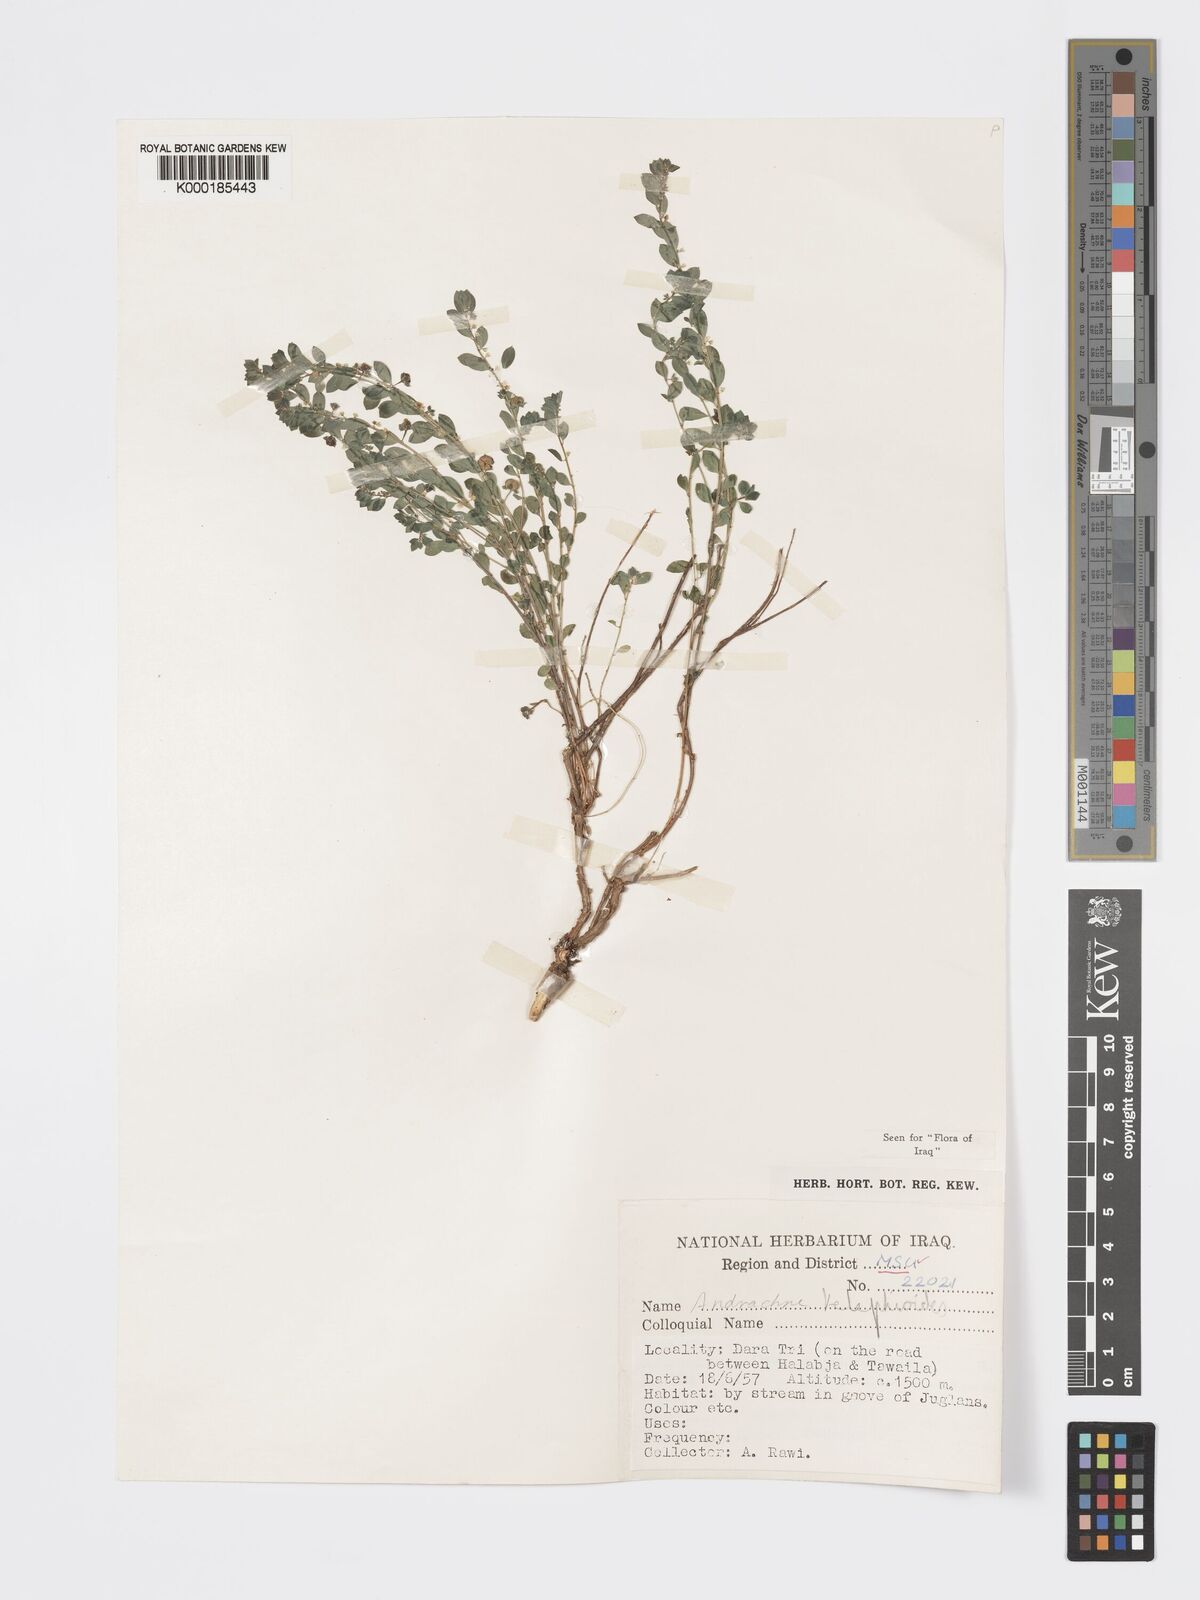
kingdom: Plantae
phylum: Tracheophyta
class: Magnoliopsida
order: Malpighiales
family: Phyllanthaceae
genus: Andrachne
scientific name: Andrachne telephioides
